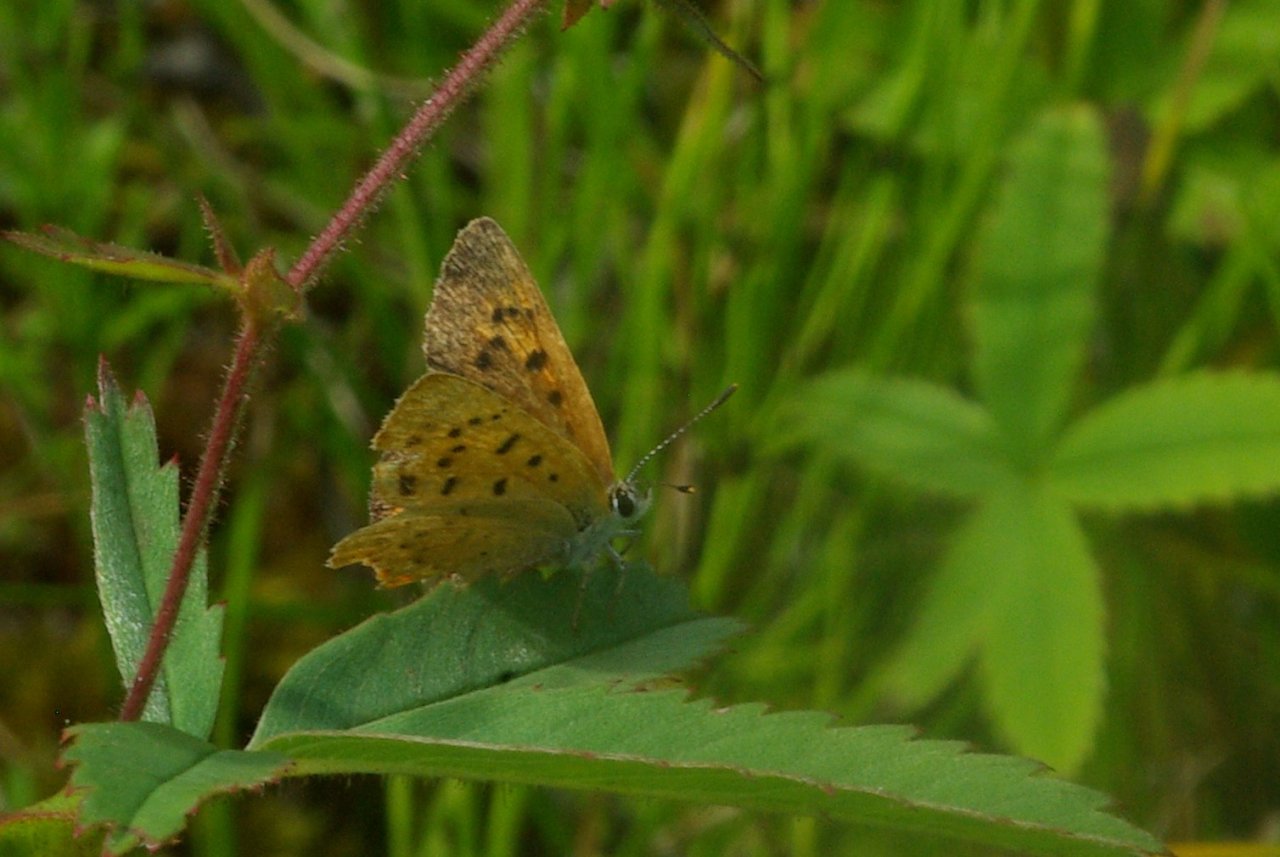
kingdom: Animalia
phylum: Arthropoda
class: Insecta
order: Lepidoptera
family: Lycaenidae
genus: Epidemia
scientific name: Epidemia dorcas
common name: Dorcas Copper
